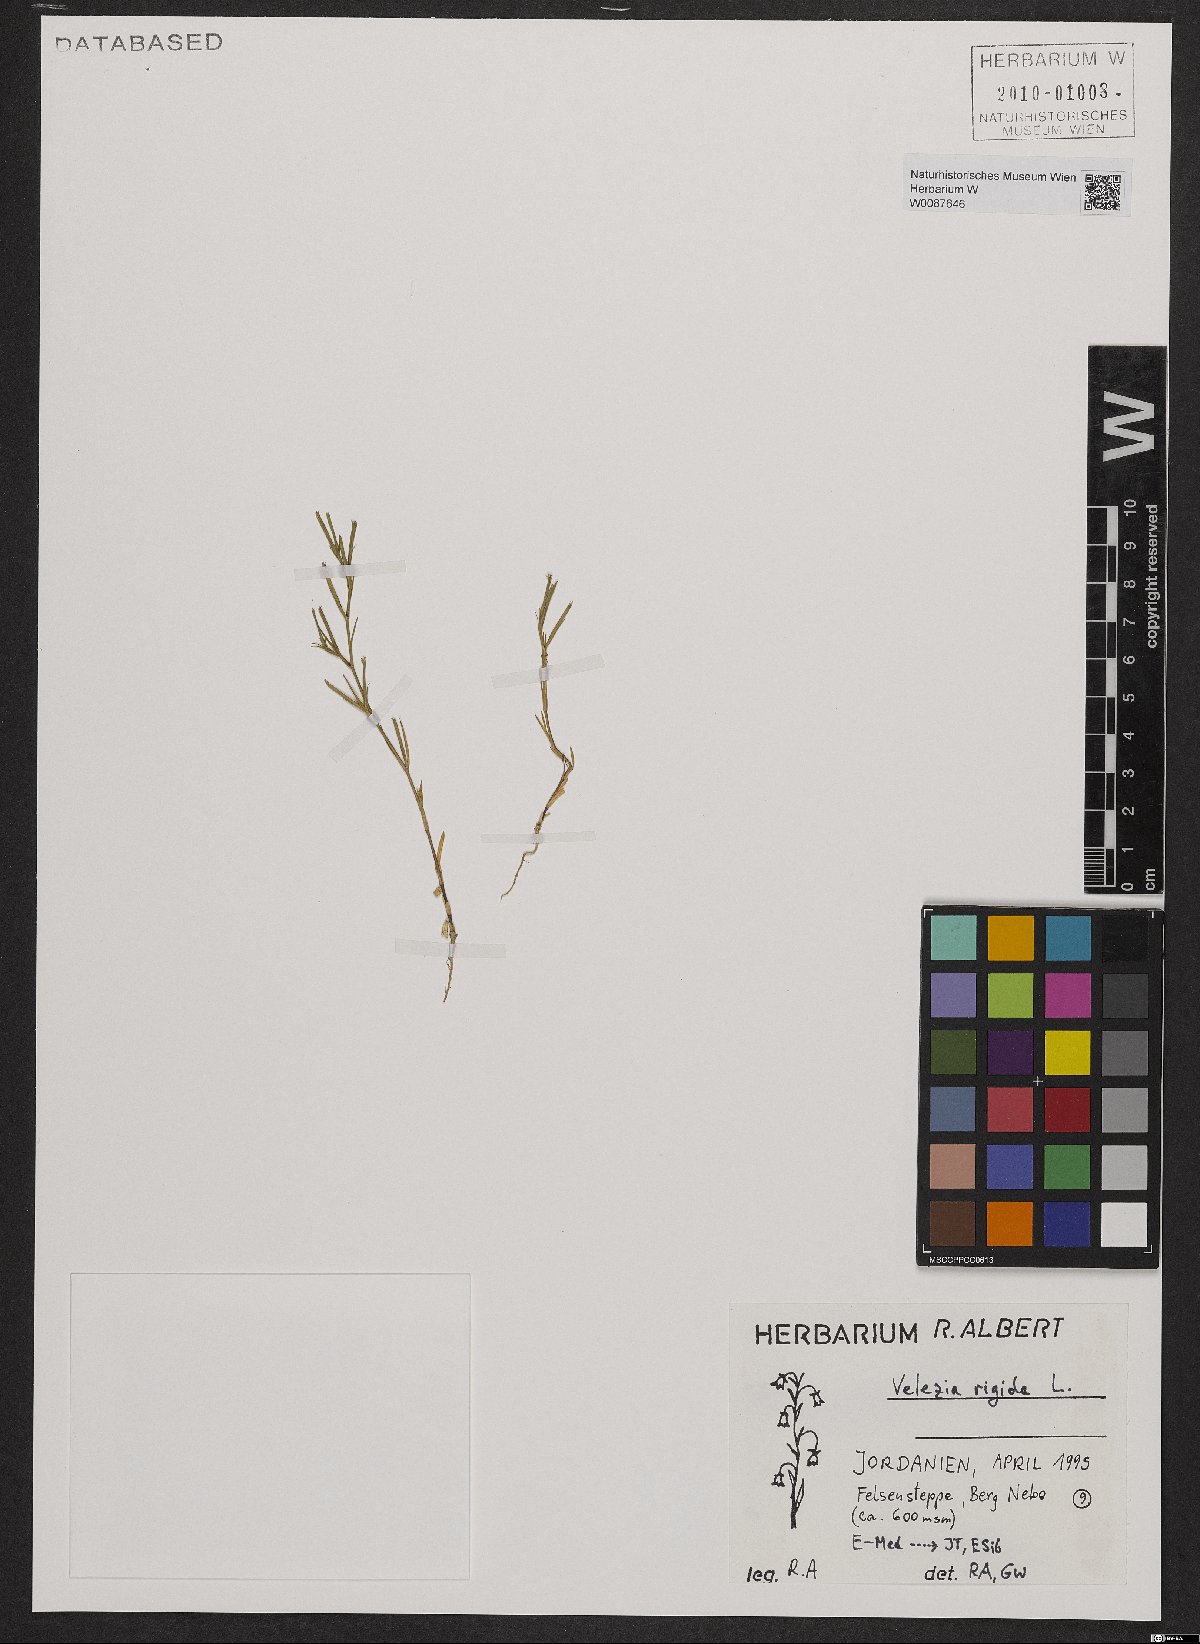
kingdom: Plantae
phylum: Tracheophyta
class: Magnoliopsida
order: Caryophyllales
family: Caryophyllaceae
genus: Dianthus
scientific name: Dianthus nudiflorus
